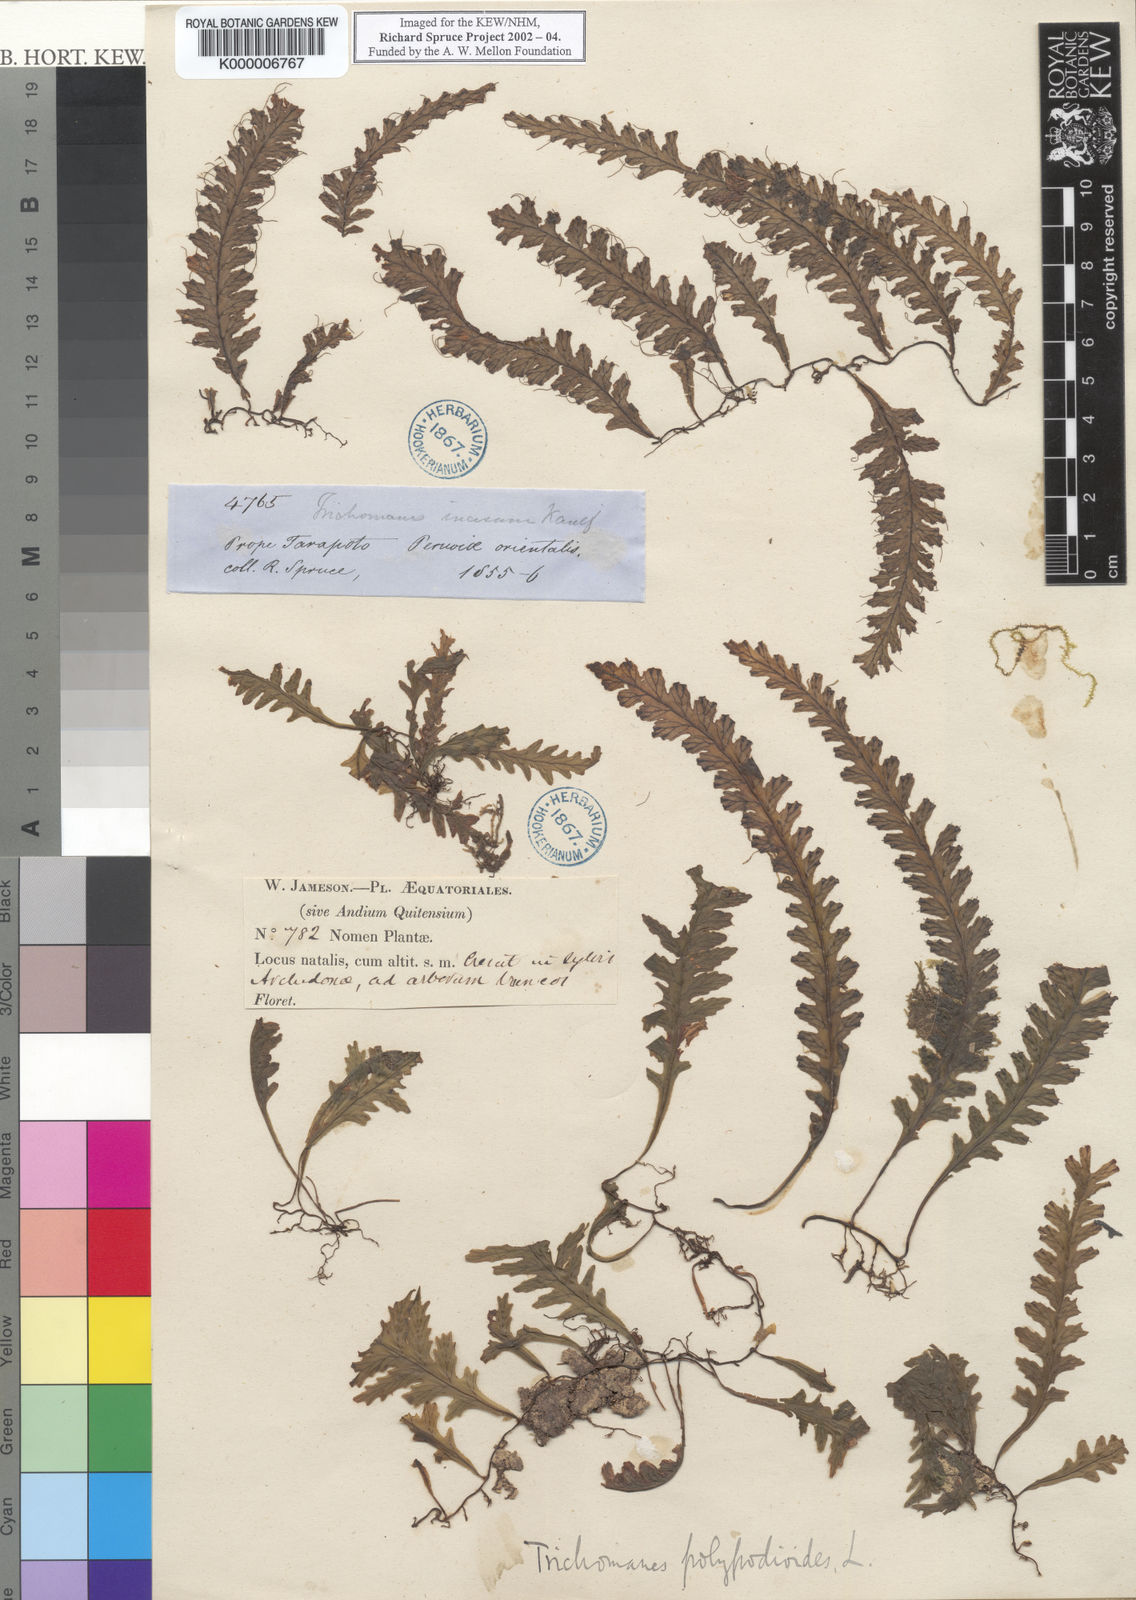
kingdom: Plantae
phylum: Tracheophyta
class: Polypodiopsida
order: Hymenophyllales
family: Hymenophyllaceae
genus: Trichomanes
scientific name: Trichomanes
